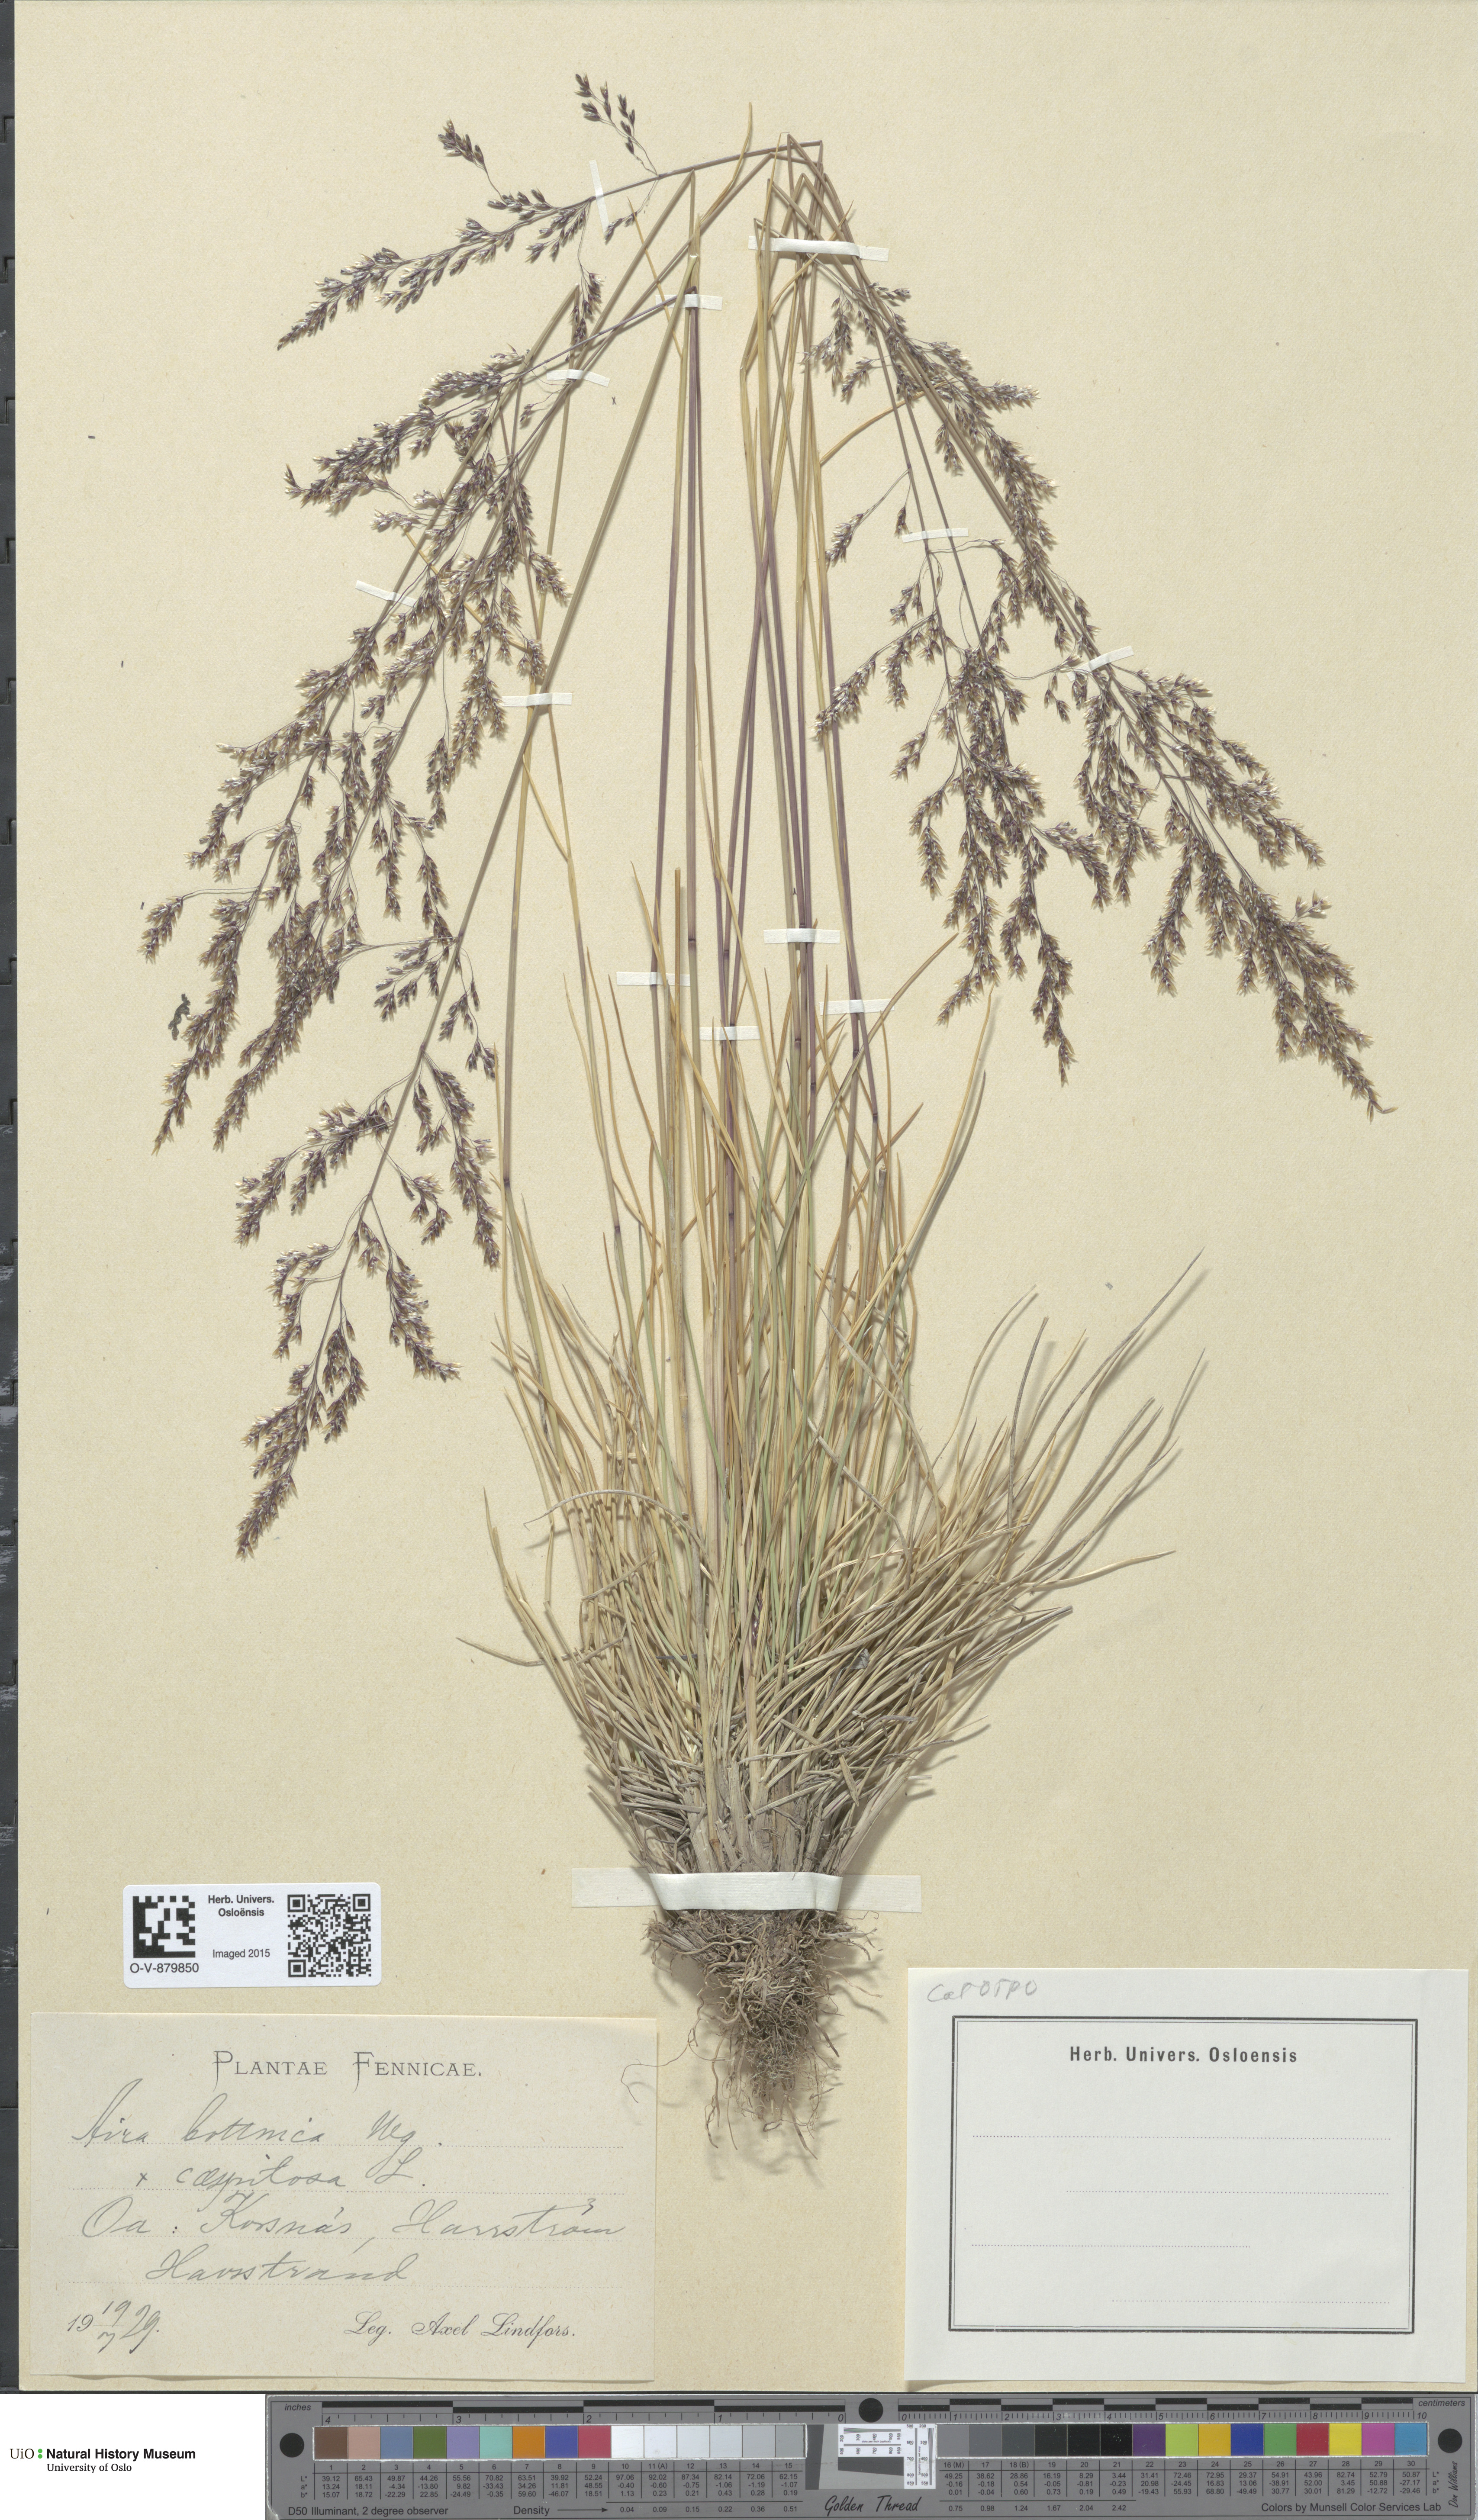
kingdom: Plantae
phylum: Tracheophyta
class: Liliopsida
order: Poales
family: Poaceae
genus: Deschampsia
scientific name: Deschampsia
